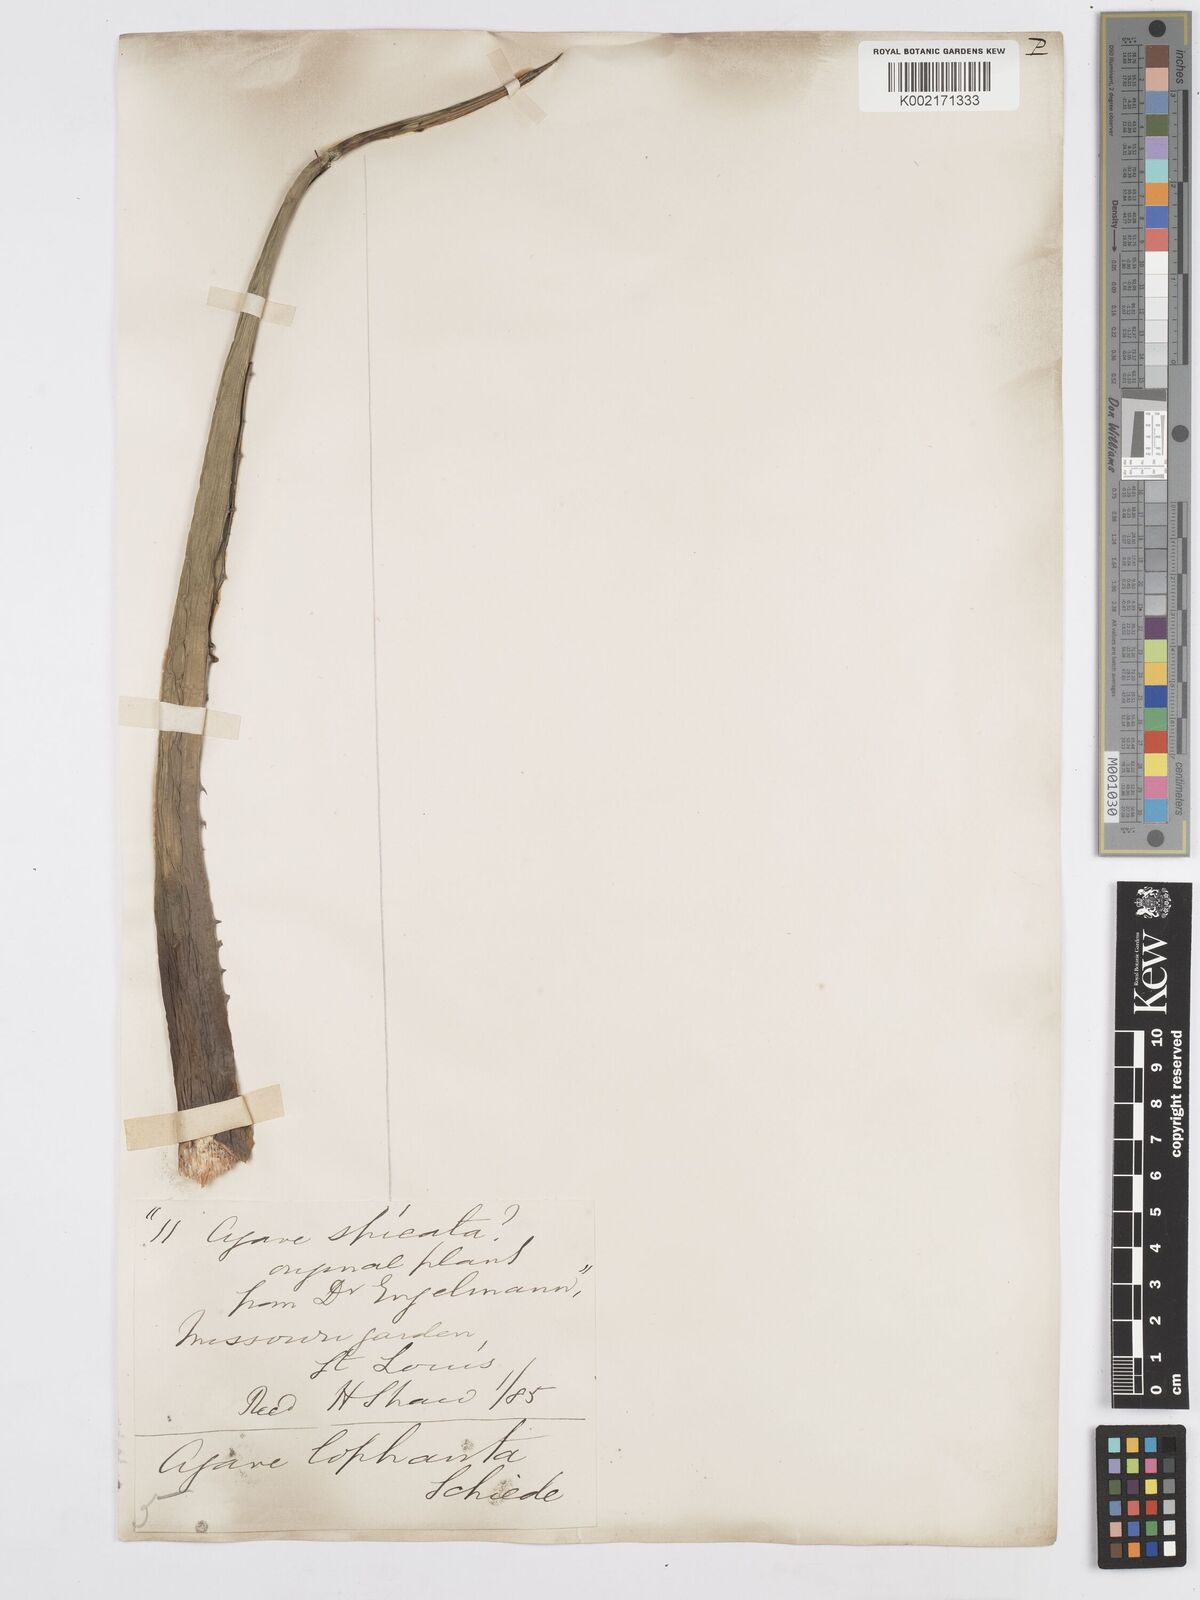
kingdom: Plantae
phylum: Tracheophyta
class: Liliopsida
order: Asparagales
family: Asparagaceae
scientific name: Asparagaceae
